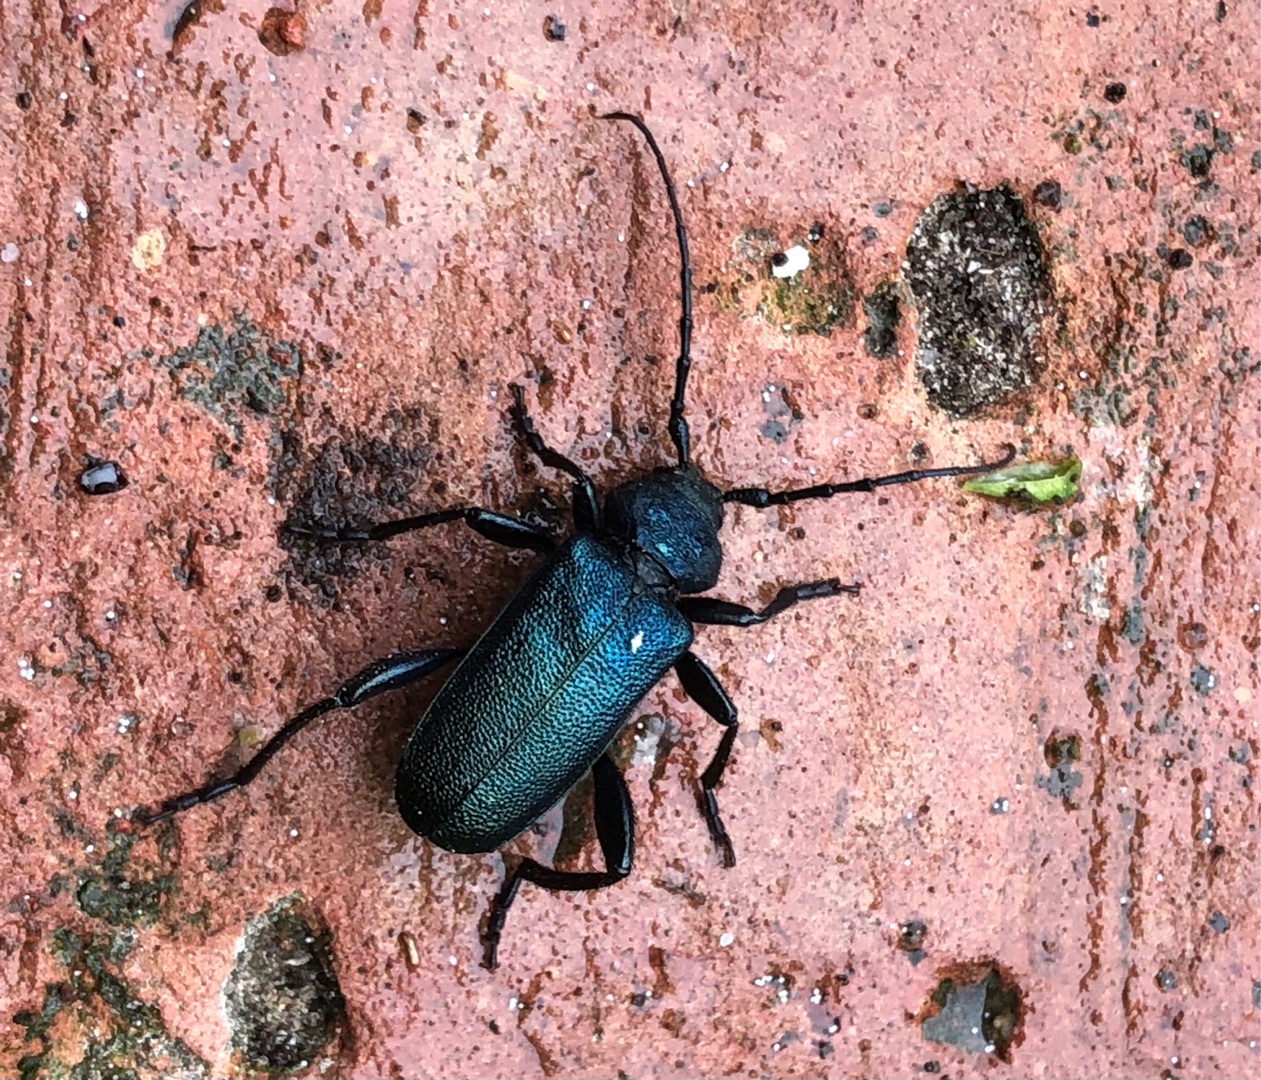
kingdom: Animalia
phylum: Arthropoda
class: Insecta
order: Coleoptera
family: Cerambycidae
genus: Agapanthia
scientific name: Agapanthia violacea
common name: Violbuk
